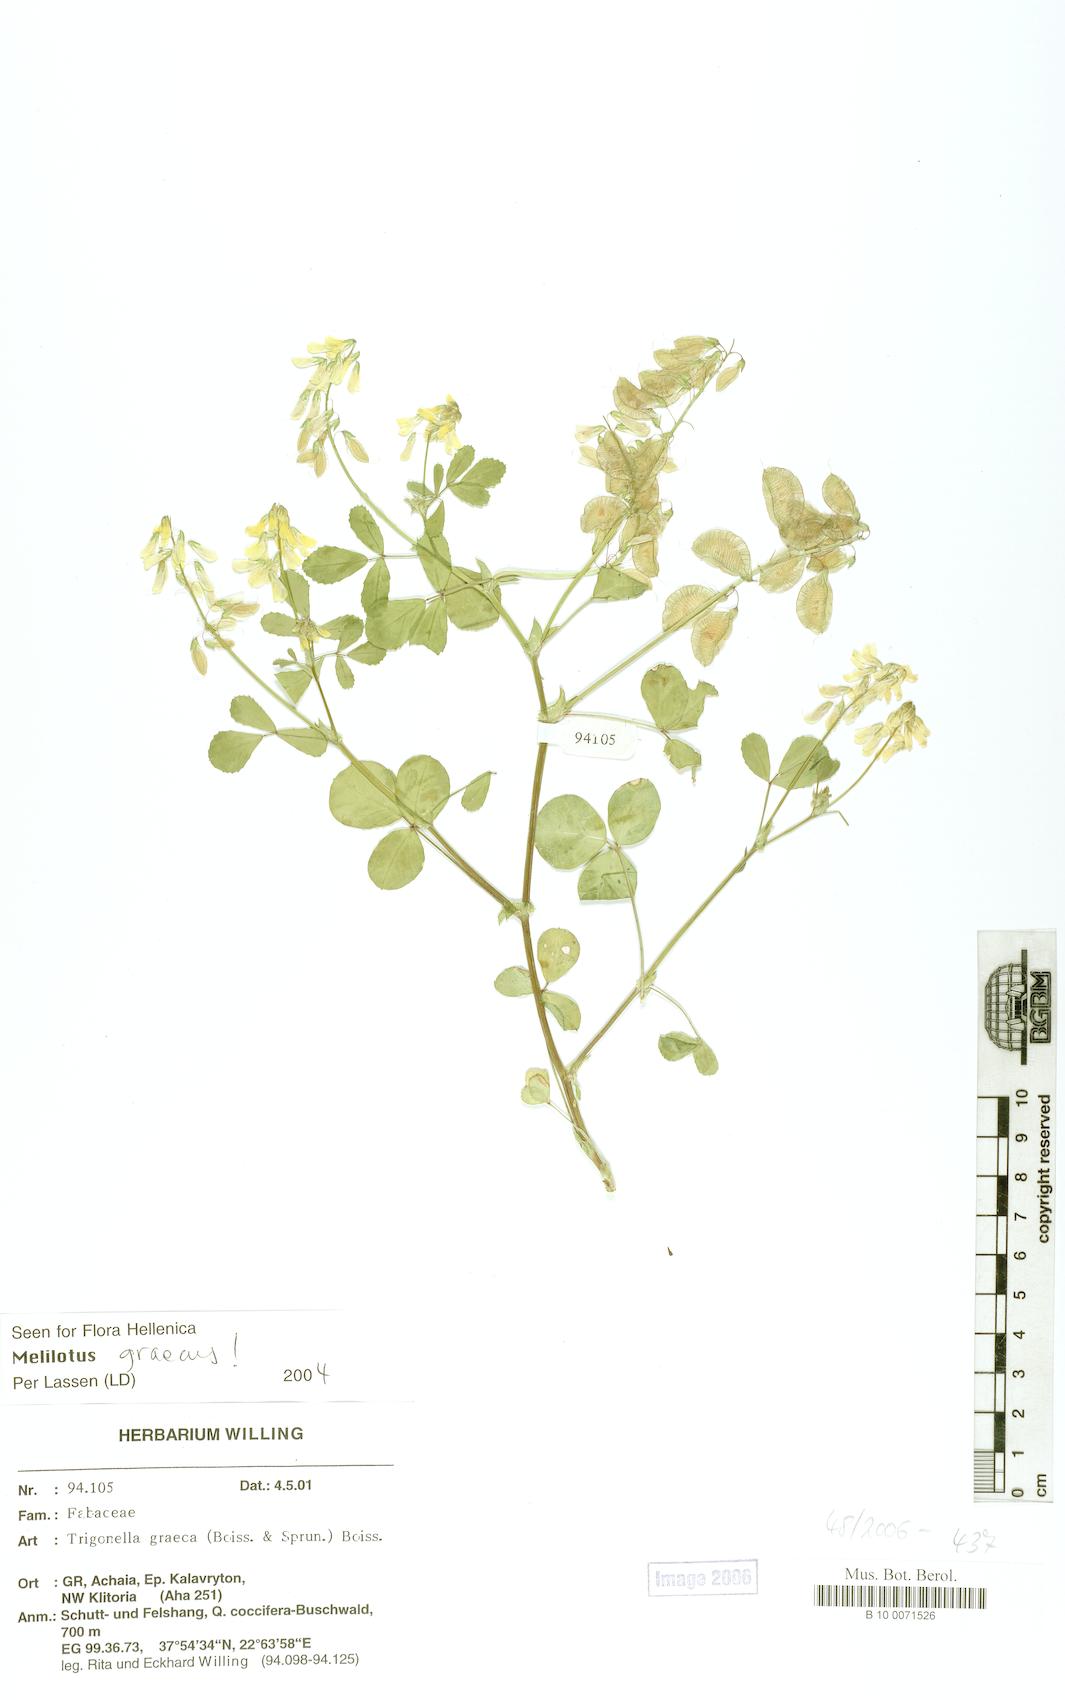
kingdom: Plantae
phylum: Tracheophyta
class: Magnoliopsida
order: Fabales
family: Fabaceae
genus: Trigonella
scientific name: Trigonella graeca
